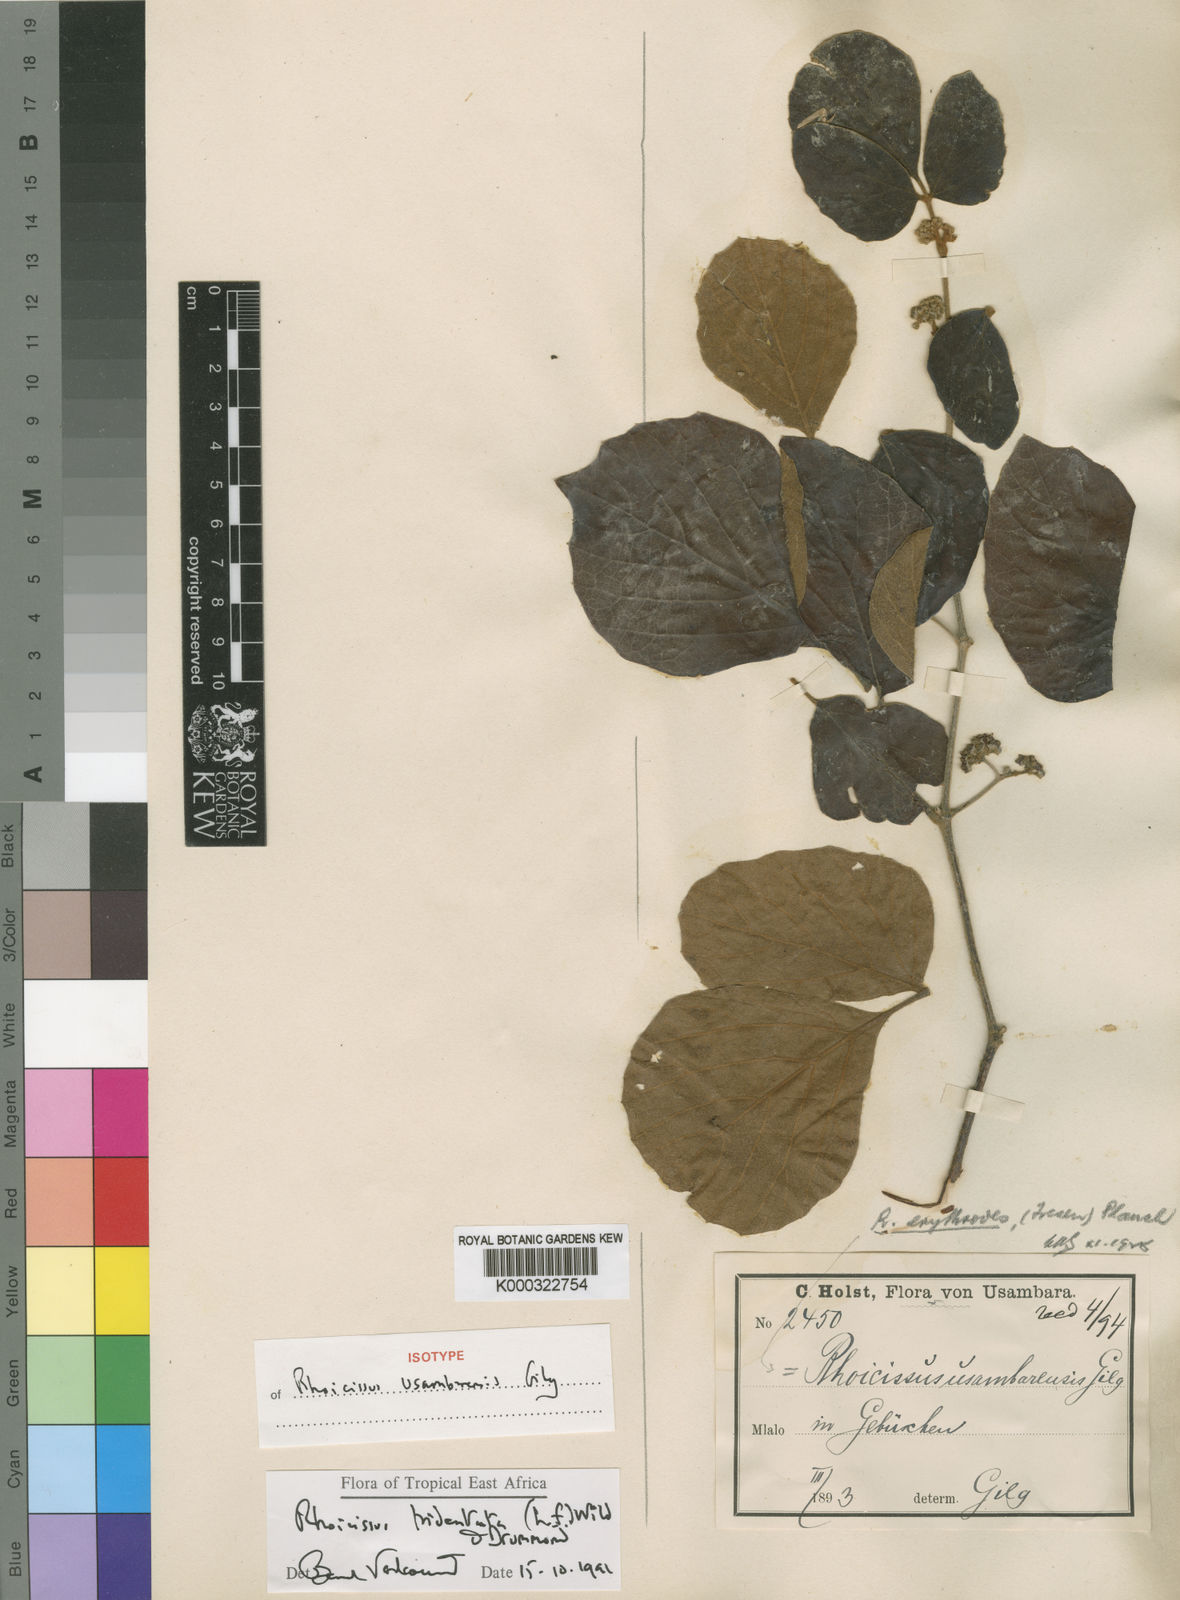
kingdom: Plantae
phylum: Tracheophyta
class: Magnoliopsida
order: Vitales
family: Vitaceae
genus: Rhoicissus
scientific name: Rhoicissus tridentata
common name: Common forest grape
